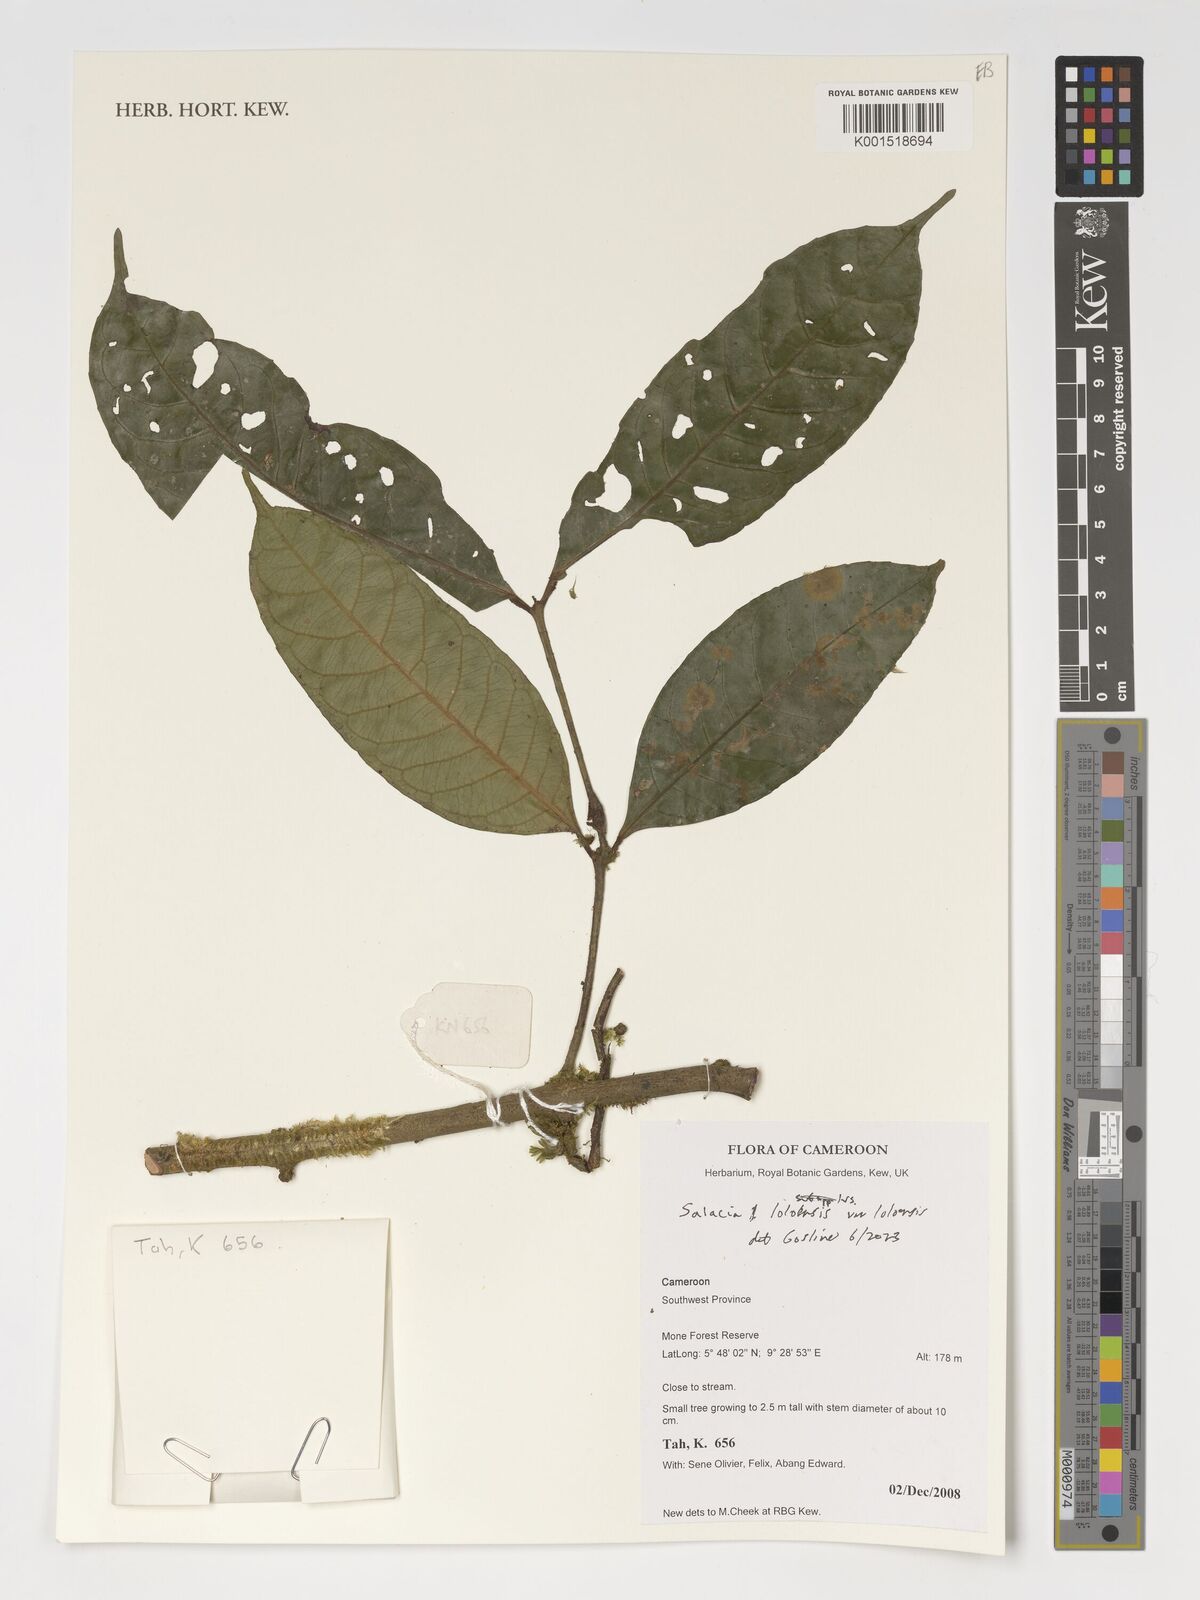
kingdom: Plantae
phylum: Tracheophyta
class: Magnoliopsida
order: Celastrales
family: Celastraceae
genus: Salacia
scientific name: Salacia loloensis
